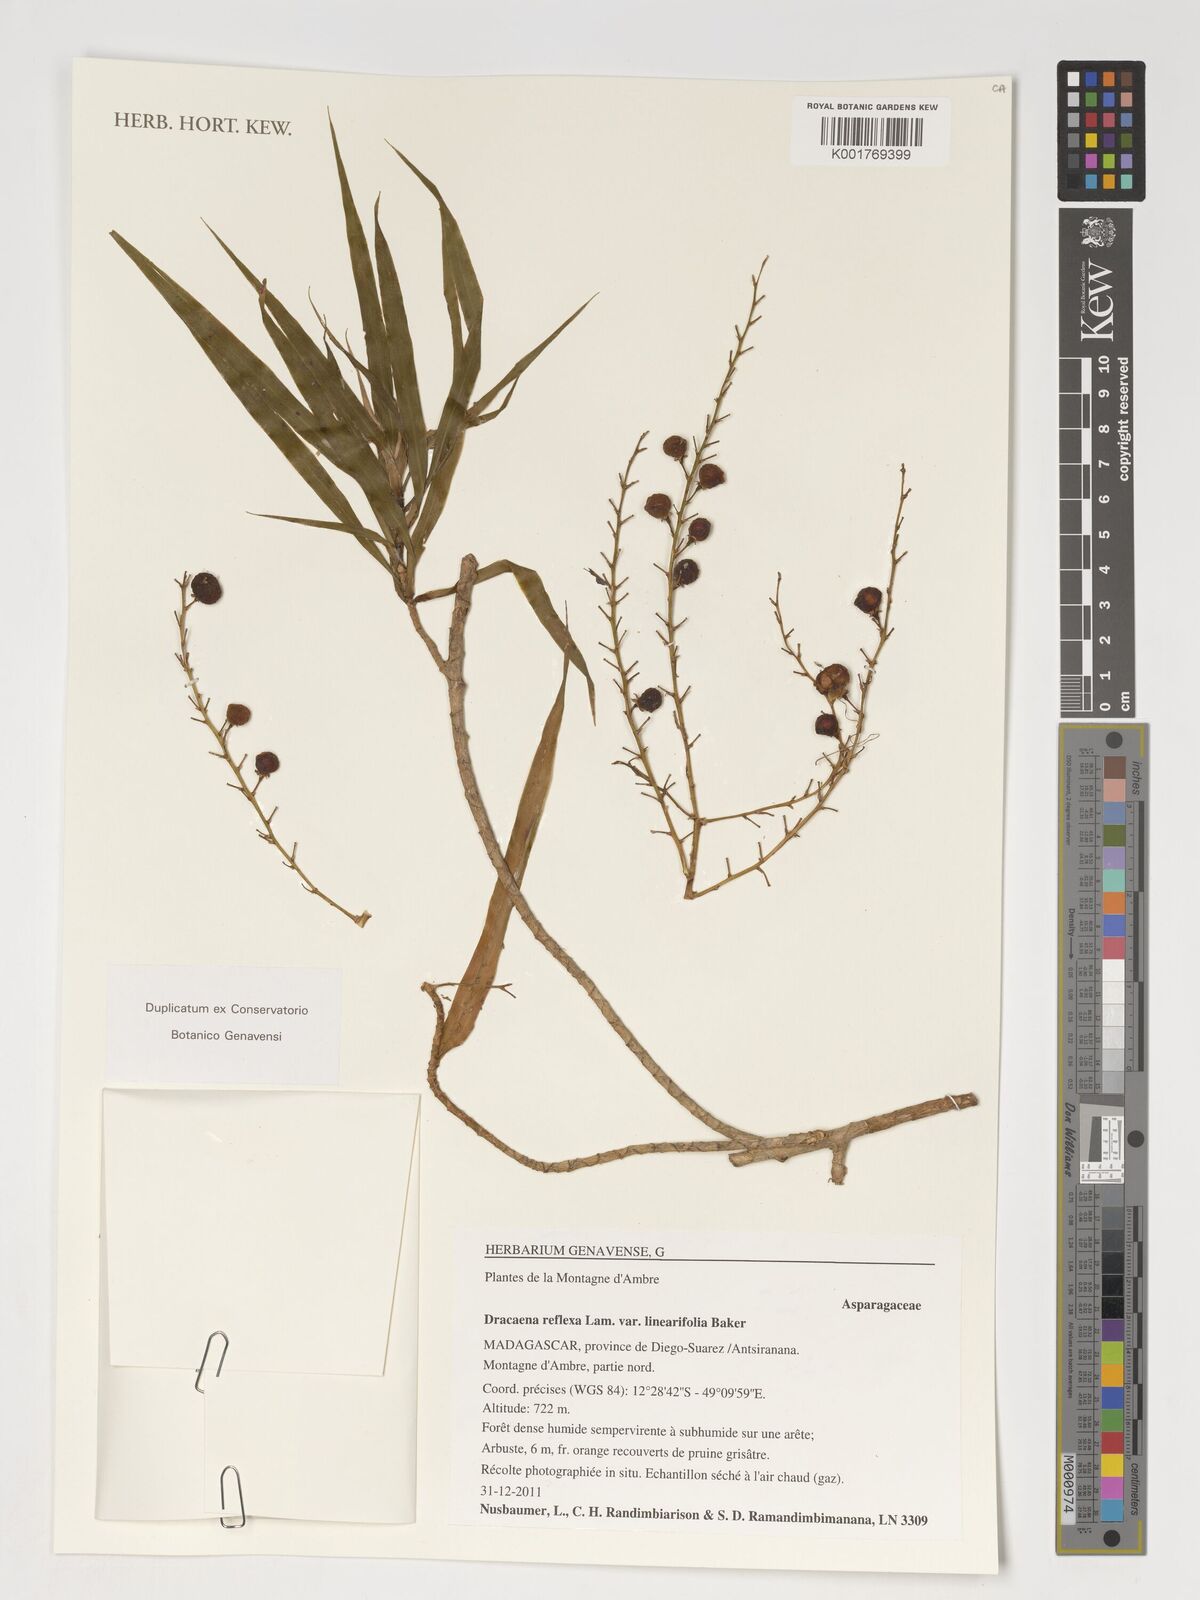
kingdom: Plantae
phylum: Tracheophyta
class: Liliopsida
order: Asparagales
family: Asparagaceae
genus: Dracaena
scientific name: Dracaena reflexa
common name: Song-of-india
